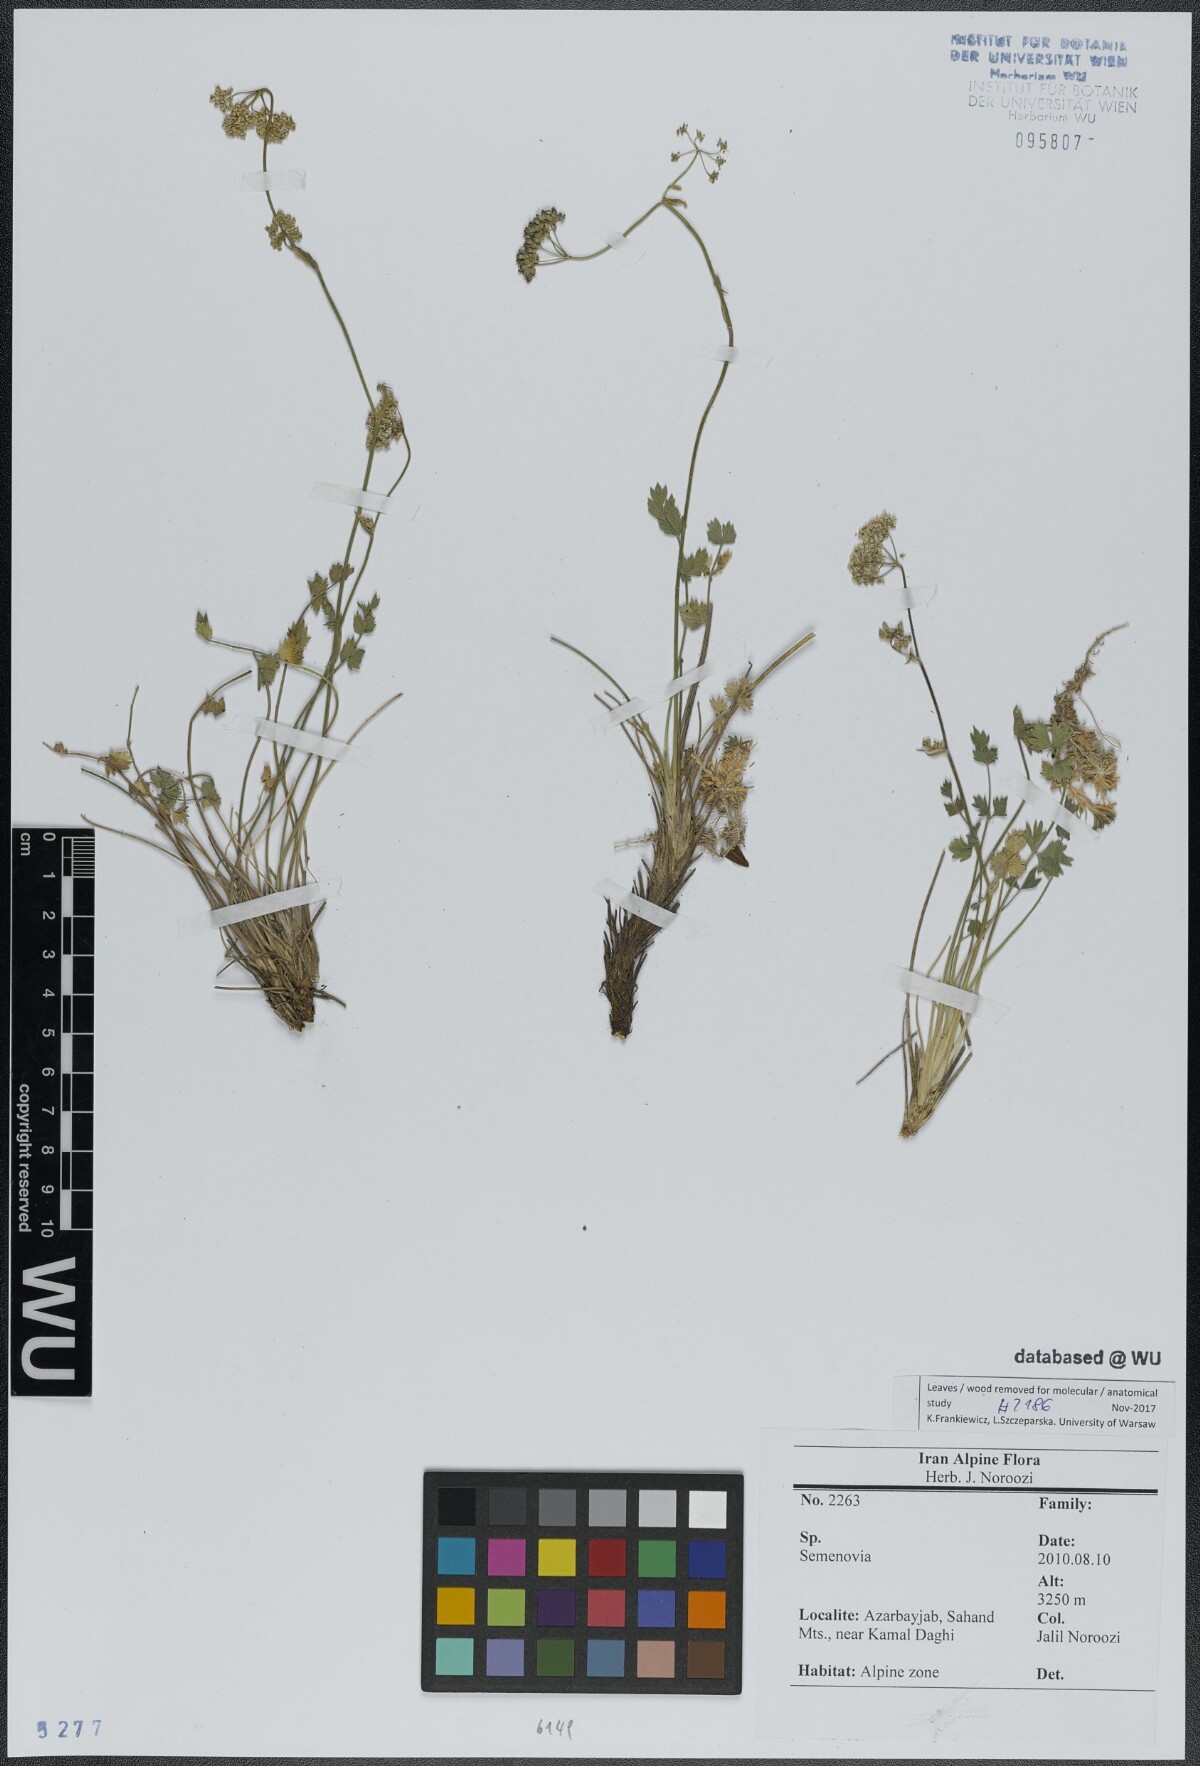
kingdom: Plantae
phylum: Tracheophyta
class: Magnoliopsida
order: Apiales
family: Apiaceae
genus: Semenovia
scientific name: Semenovia
